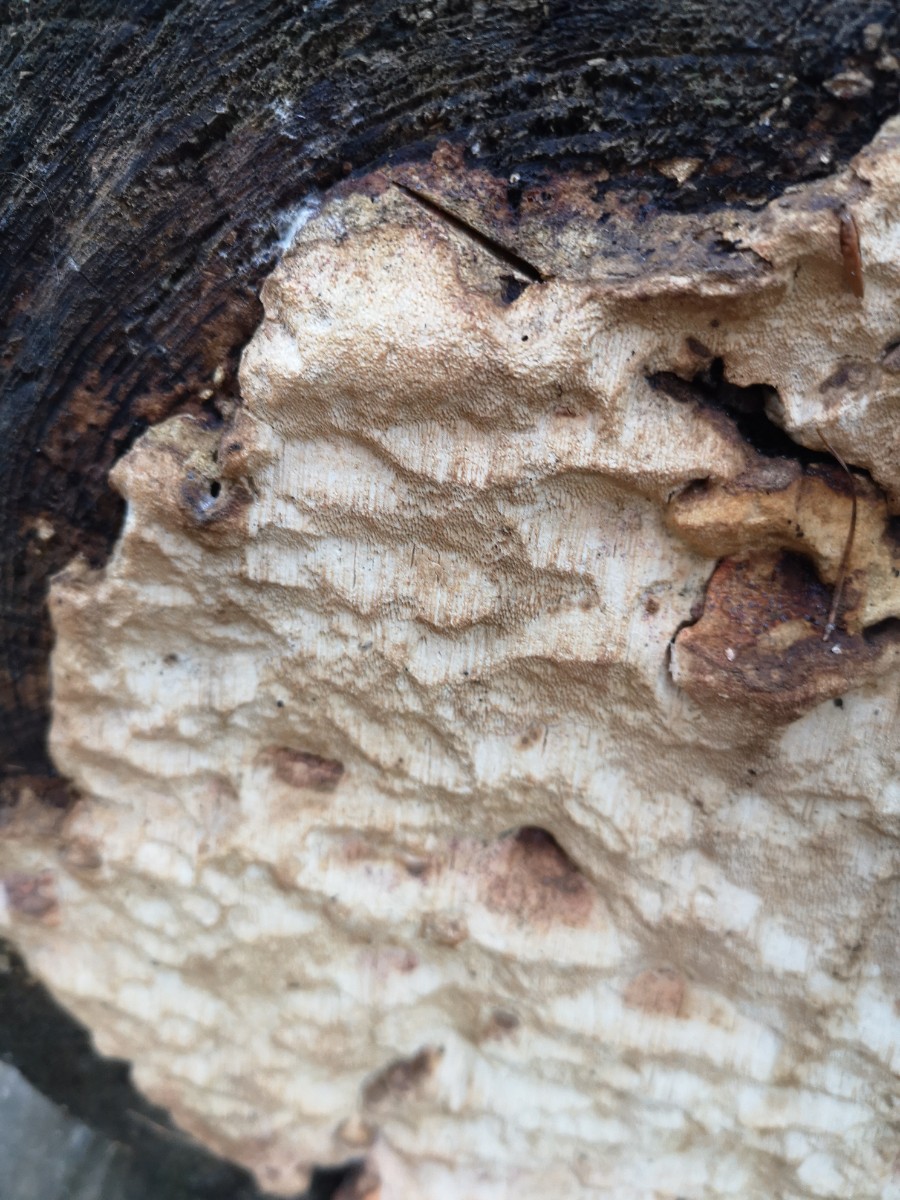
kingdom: Fungi
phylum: Basidiomycota
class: Agaricomycetes
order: Polyporales
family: Fomitopsidaceae
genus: Neoantrodia
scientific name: Neoantrodia serialis
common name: række-sejporesvamp
